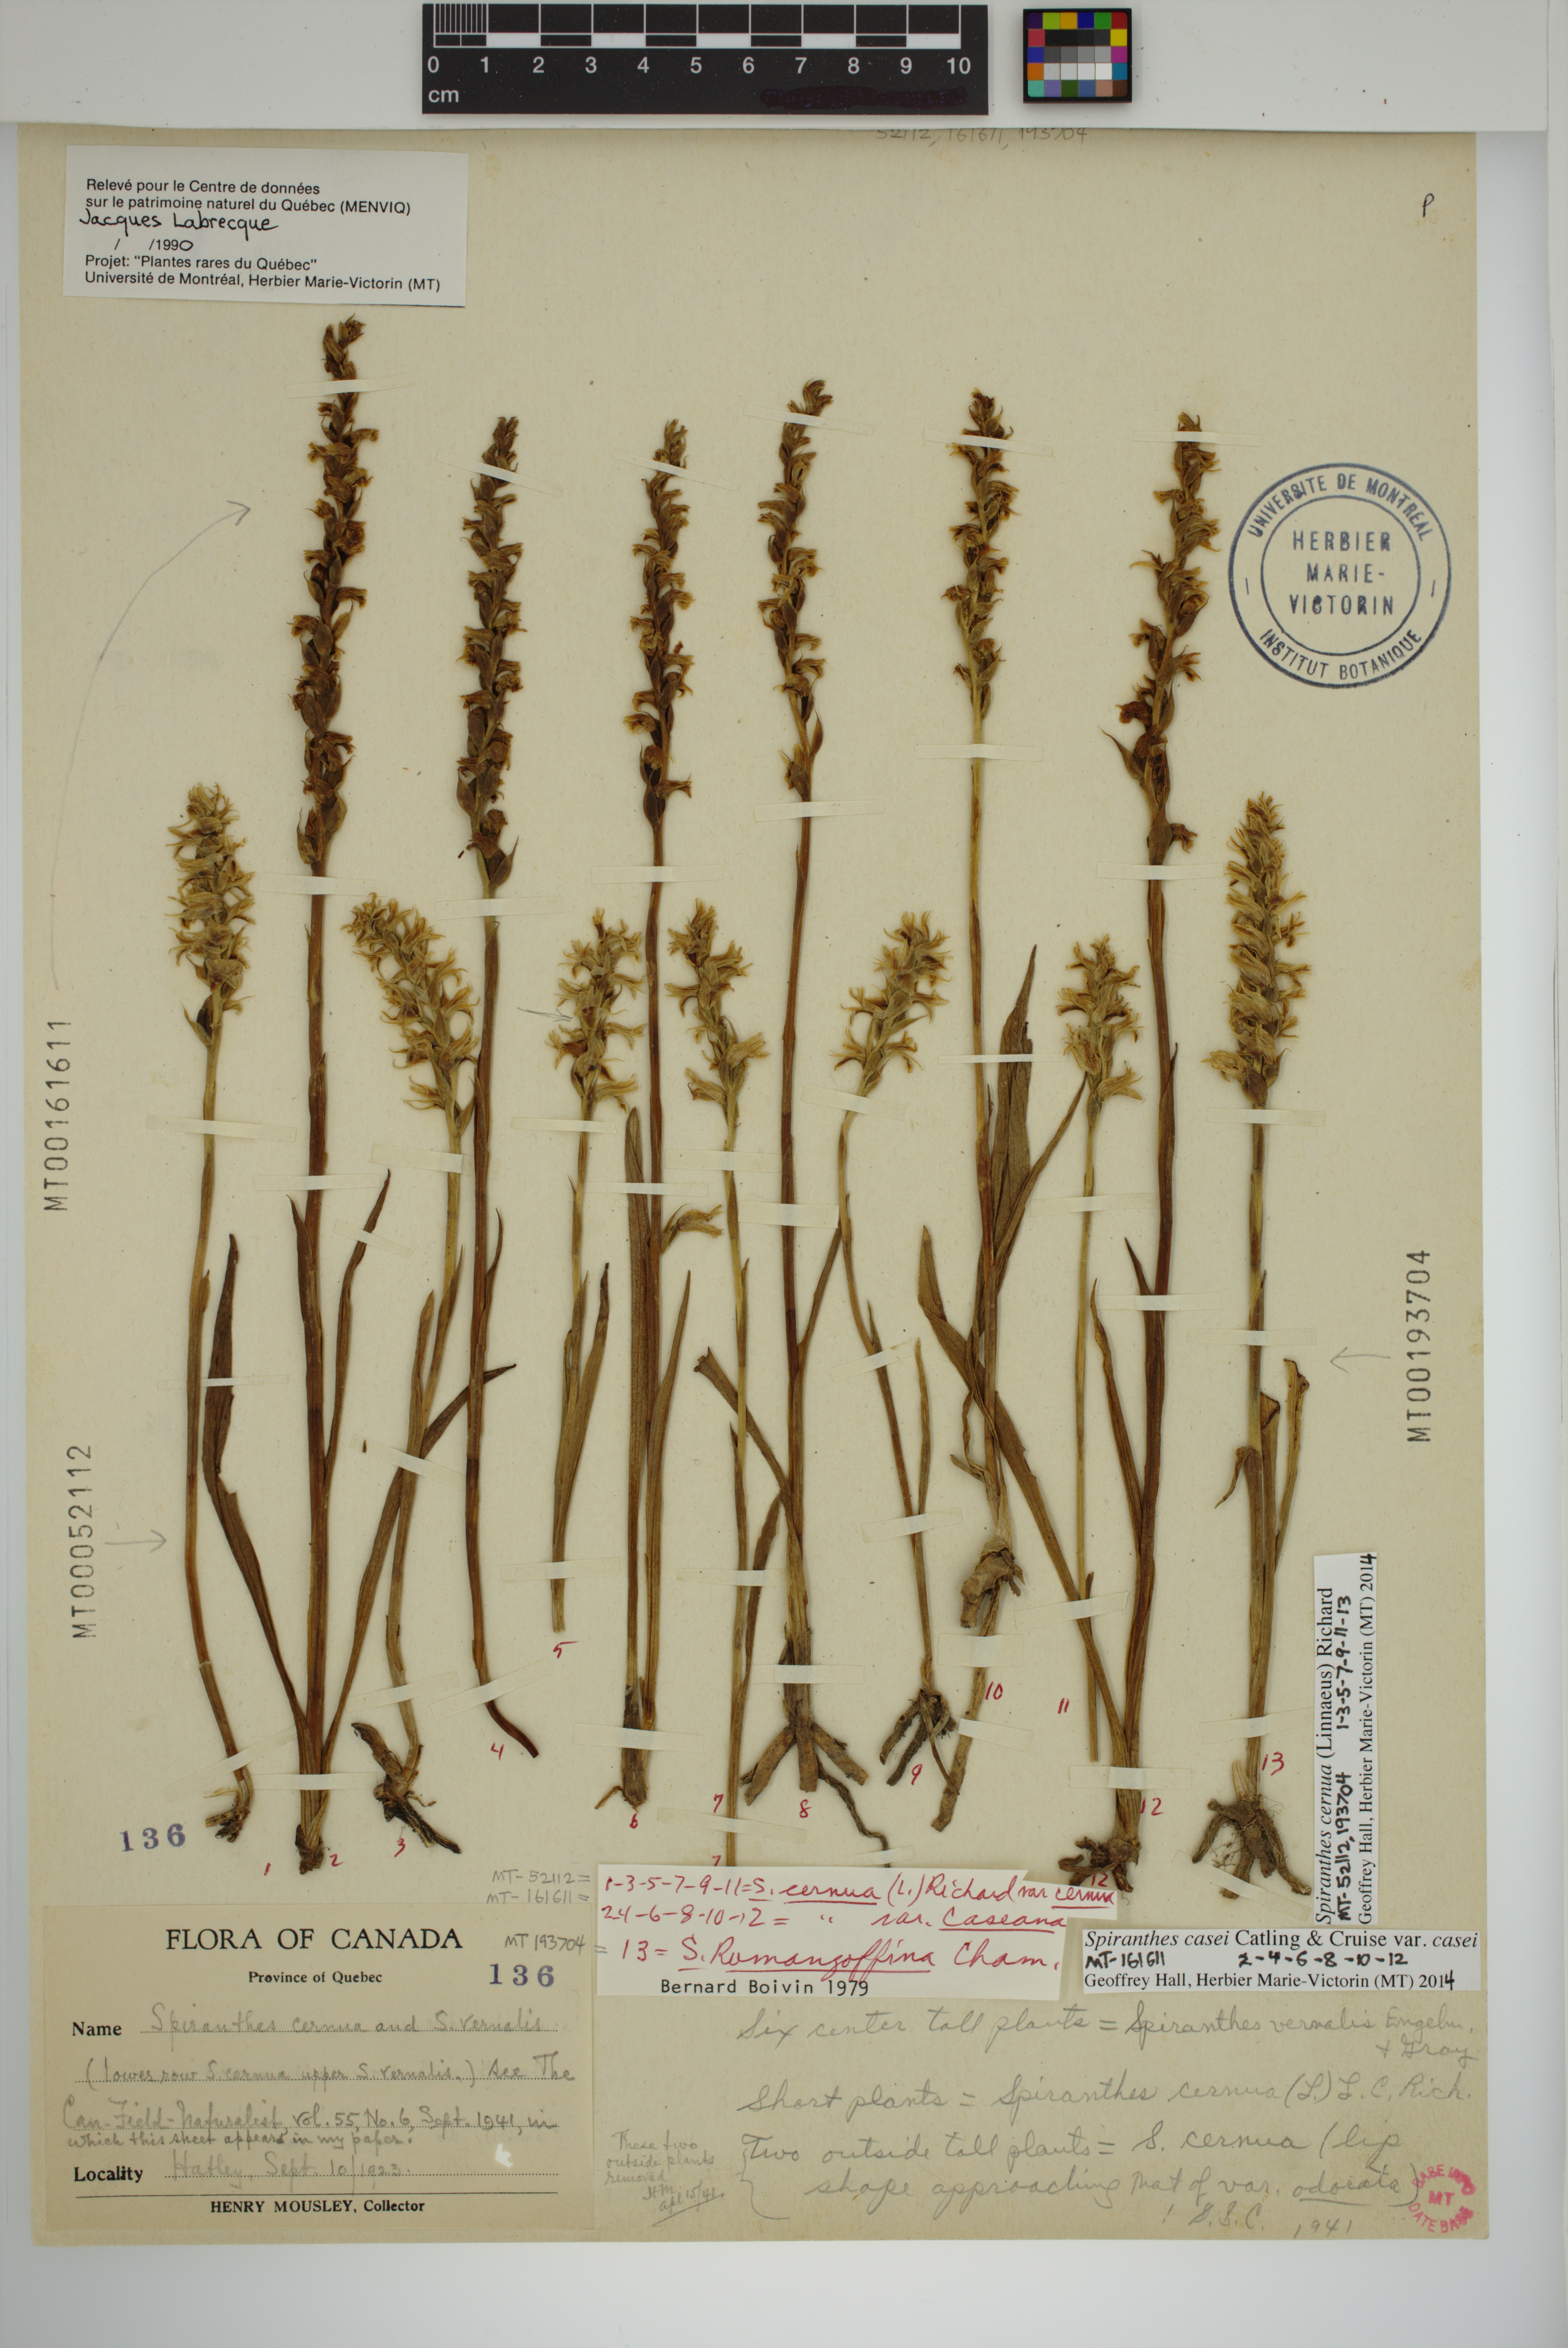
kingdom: Plantae
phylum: Tracheophyta
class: Liliopsida
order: Asparagales
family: Orchidaceae
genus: Spiranthes
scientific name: Spiranthes casei
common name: Case's ladies'-tresses
